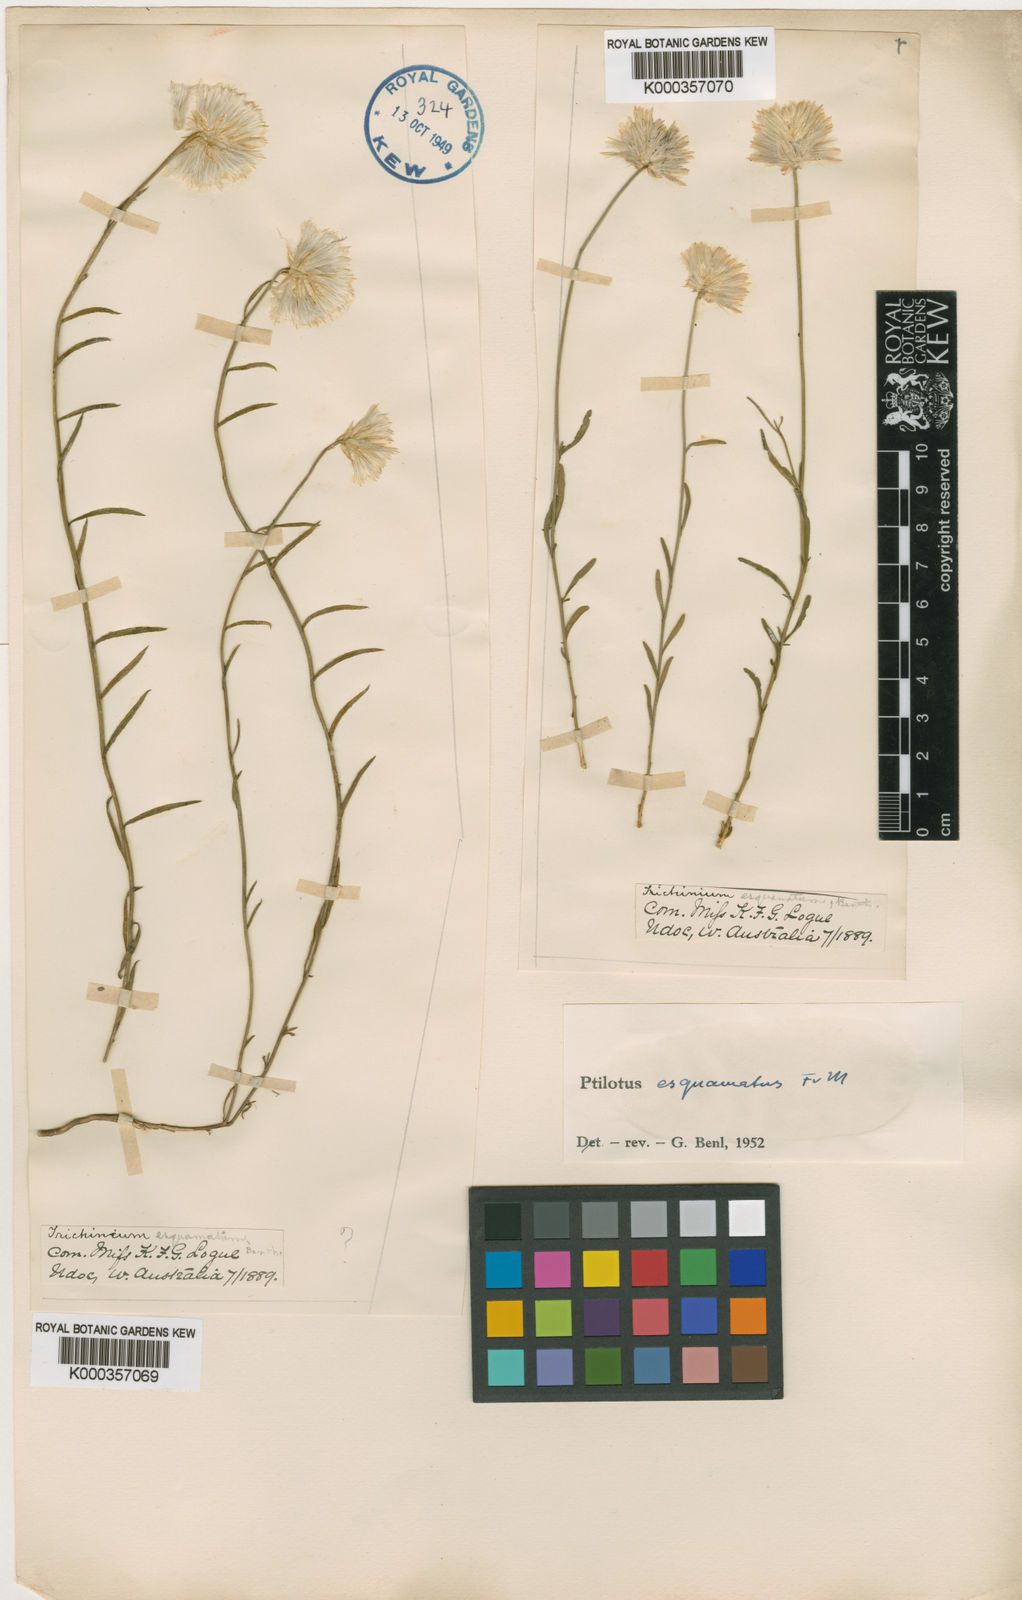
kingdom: Plantae
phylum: Tracheophyta
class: Magnoliopsida
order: Caryophyllales
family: Amaranthaceae
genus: Ptilotus
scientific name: Ptilotus esquamatus
